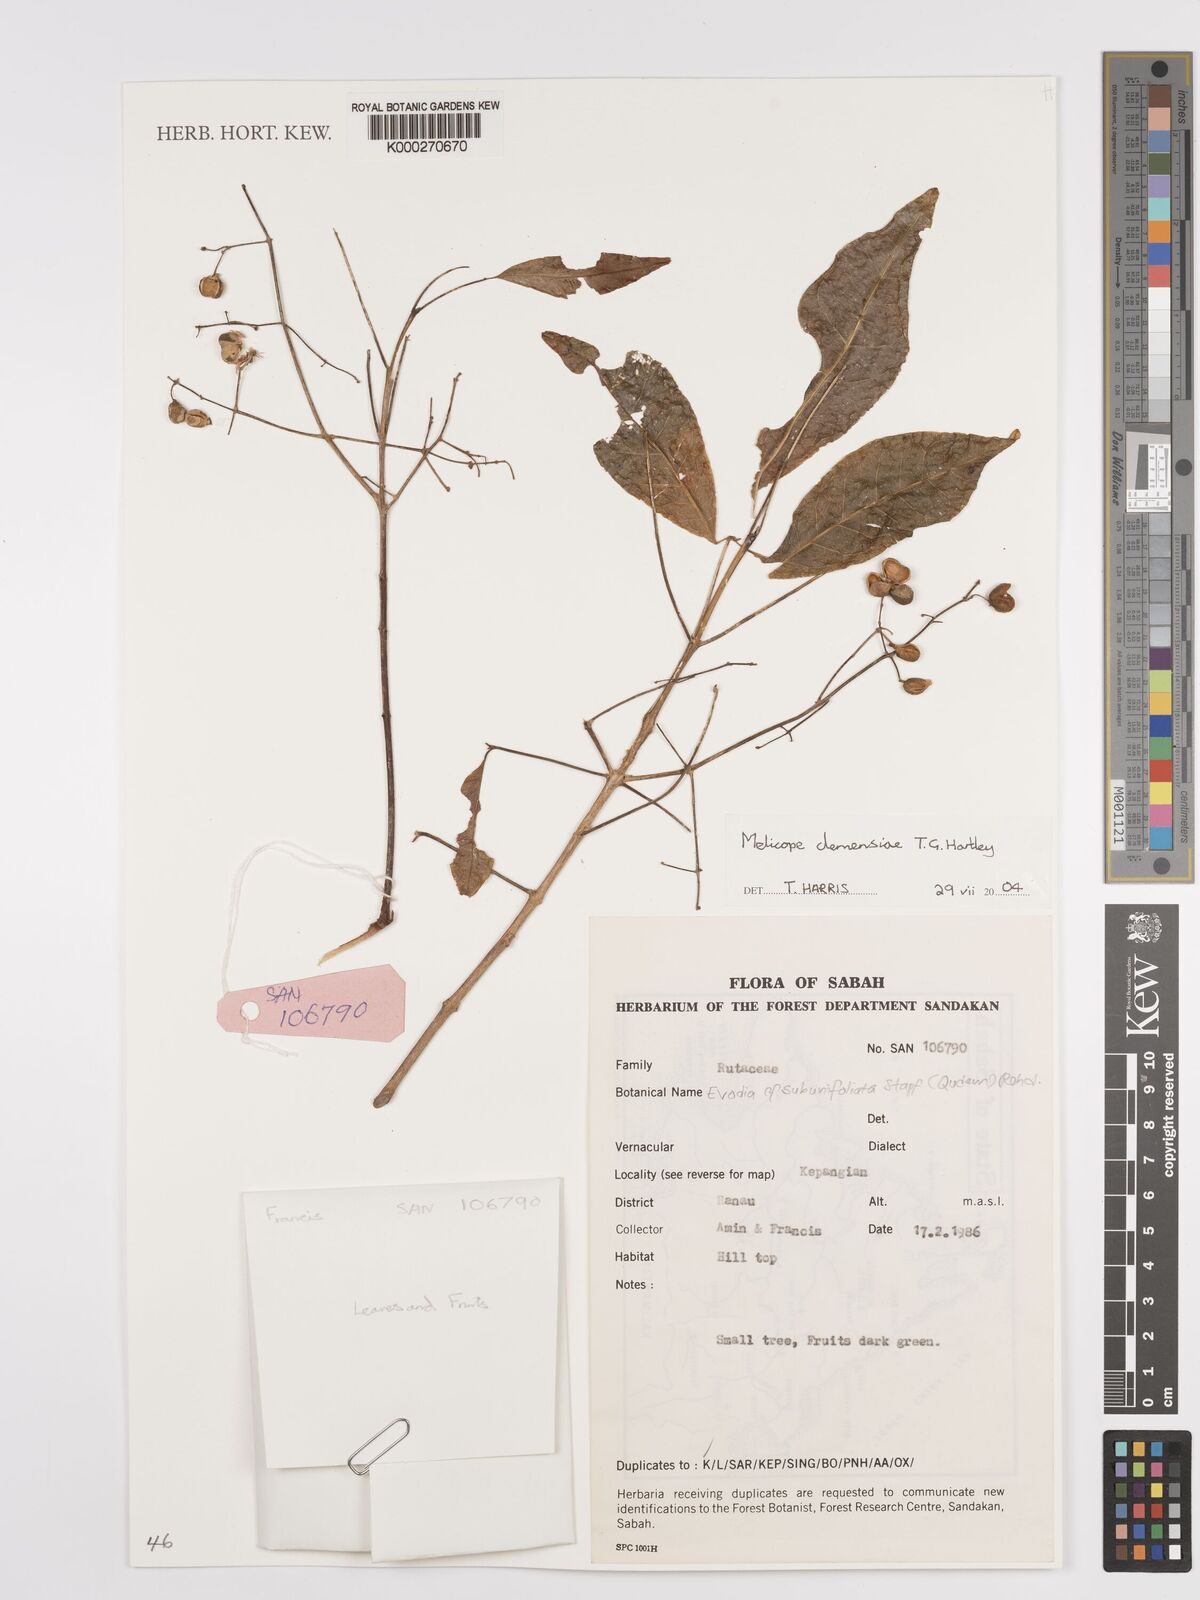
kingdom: Plantae
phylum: Tracheophyta
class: Magnoliopsida
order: Sapindales
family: Rutaceae
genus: Melicope
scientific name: Melicope clemensiae
